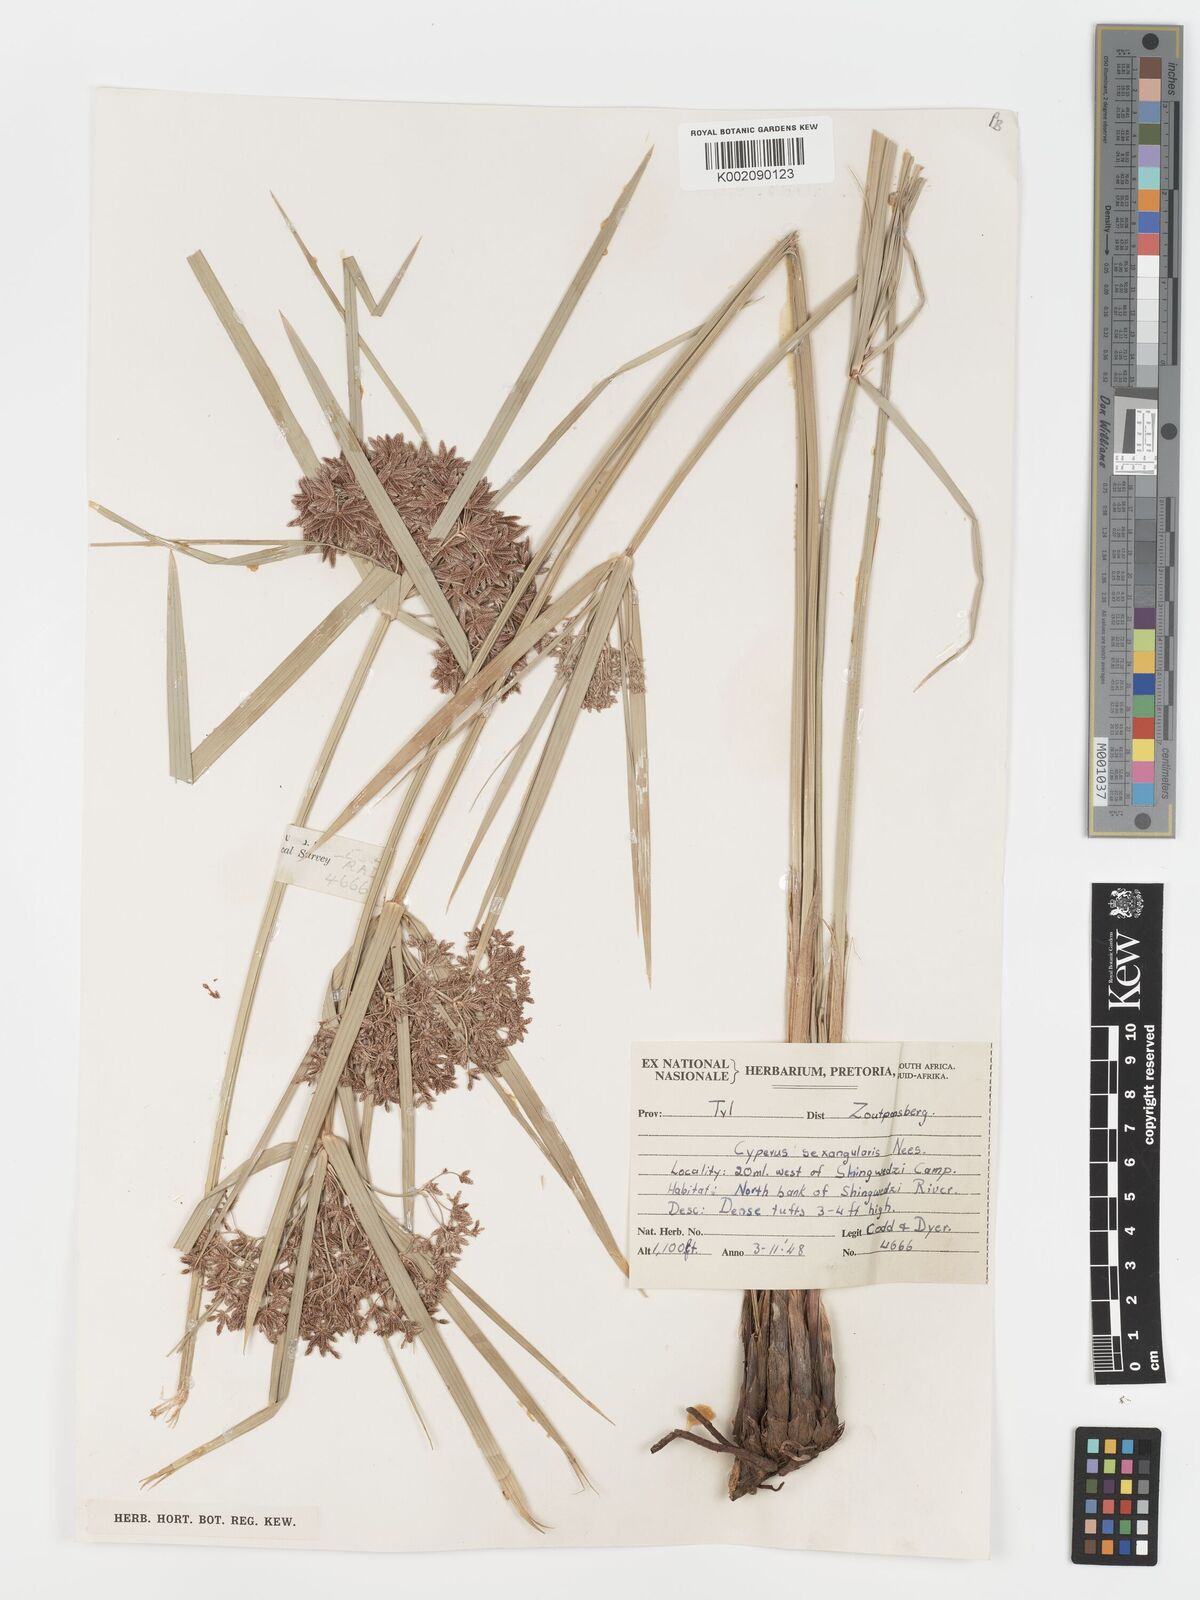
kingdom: Plantae
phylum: Tracheophyta
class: Liliopsida
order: Poales
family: Cyperaceae
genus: Cyperus
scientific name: Cyperus sexangularis
